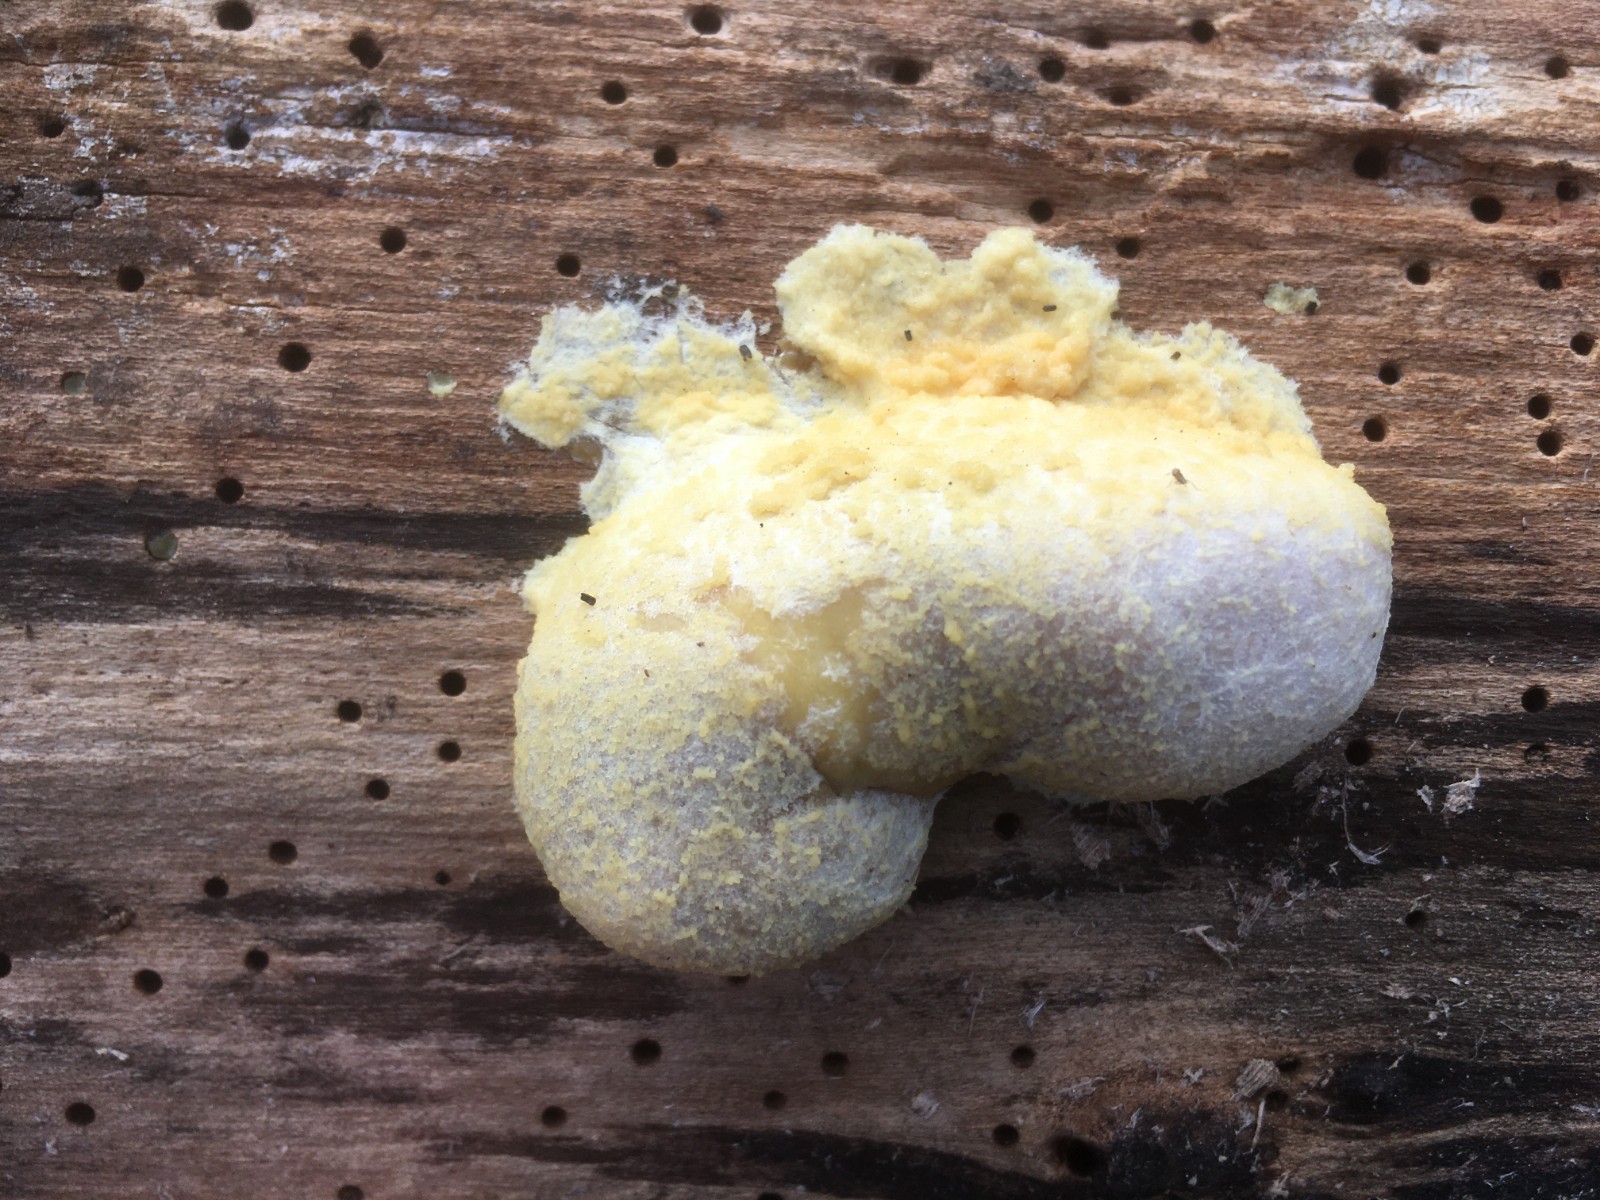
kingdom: Protozoa
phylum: Mycetozoa
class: Myxomycetes
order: Cribrariales
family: Tubiferaceae
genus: Reticularia
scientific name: Reticularia lycoperdon
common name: skinnende støvpude
